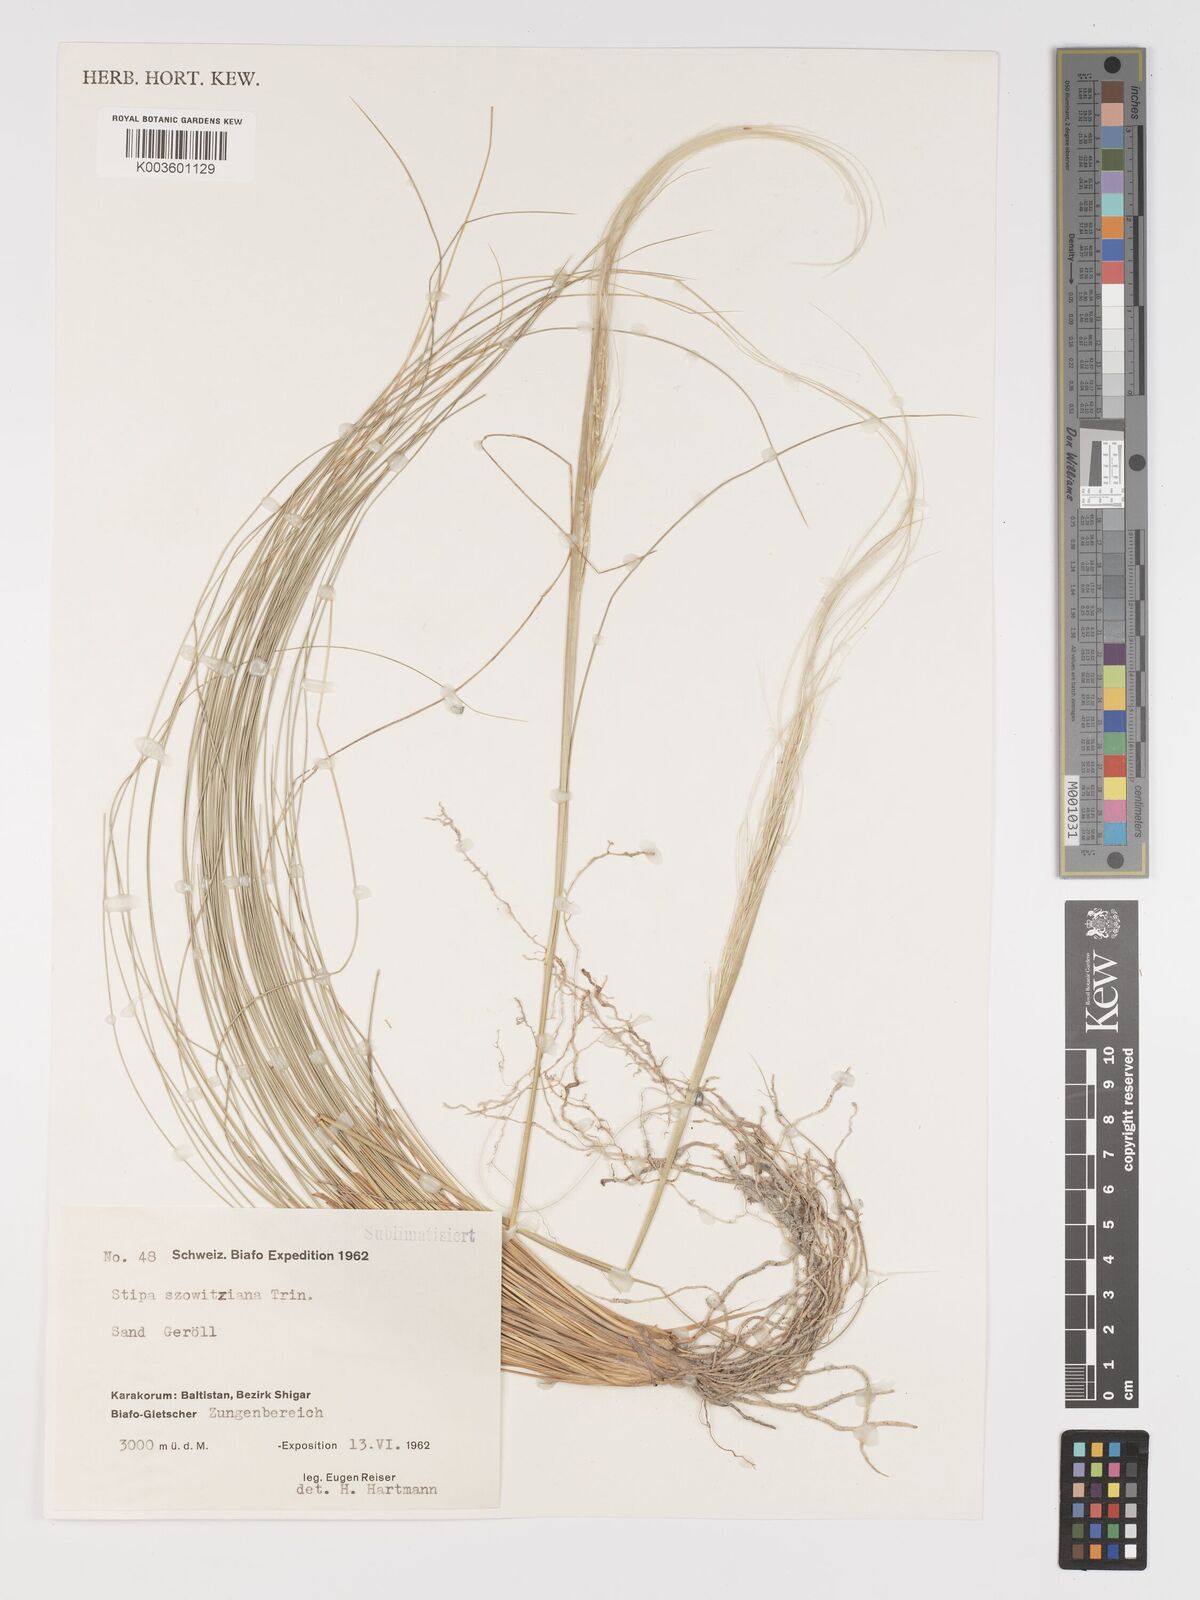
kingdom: Plantae
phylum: Tracheophyta
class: Liliopsida
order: Poales
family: Poaceae
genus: Stipa
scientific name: Stipa arabica
